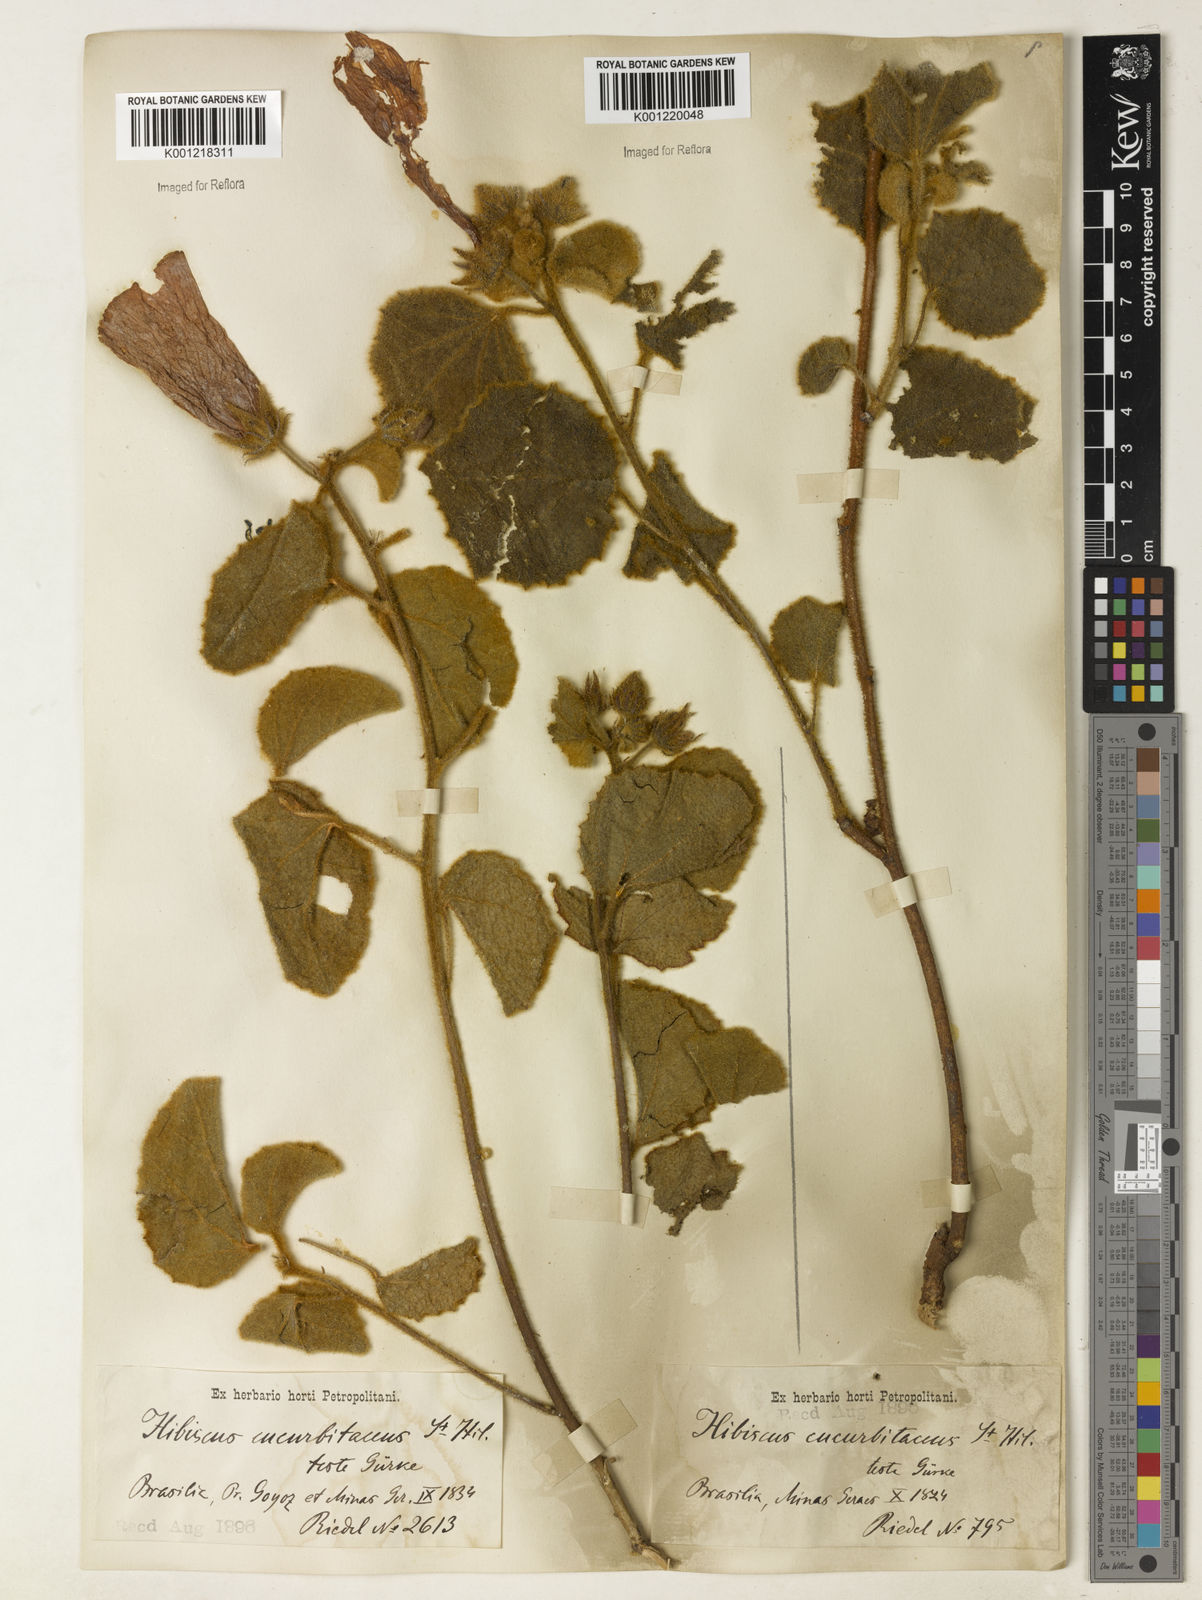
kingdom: Plantae
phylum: Tracheophyta
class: Magnoliopsida
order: Malvales
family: Malvaceae
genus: Hibiscus
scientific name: Hibiscus cucurbitaceus
